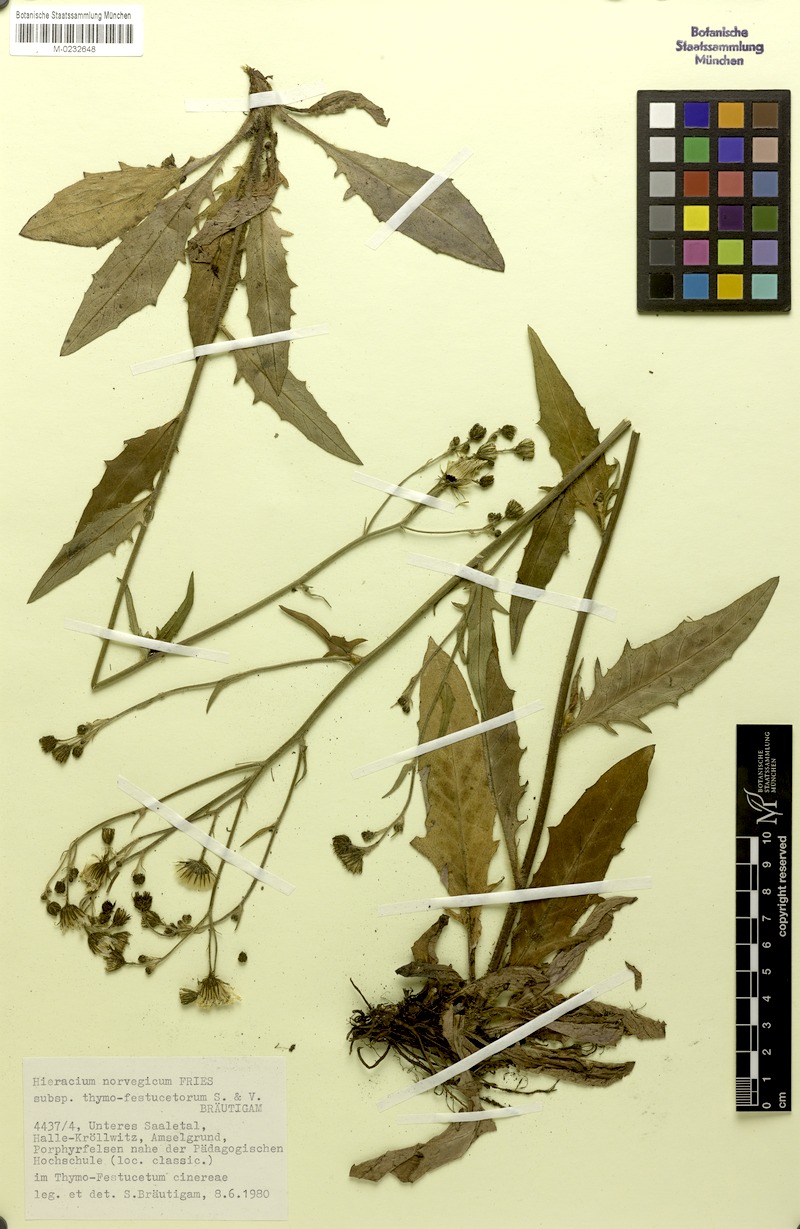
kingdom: Plantae
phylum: Tracheophyta
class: Magnoliopsida
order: Asterales
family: Asteraceae
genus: Hieracium
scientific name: Hieracium norvegicum
